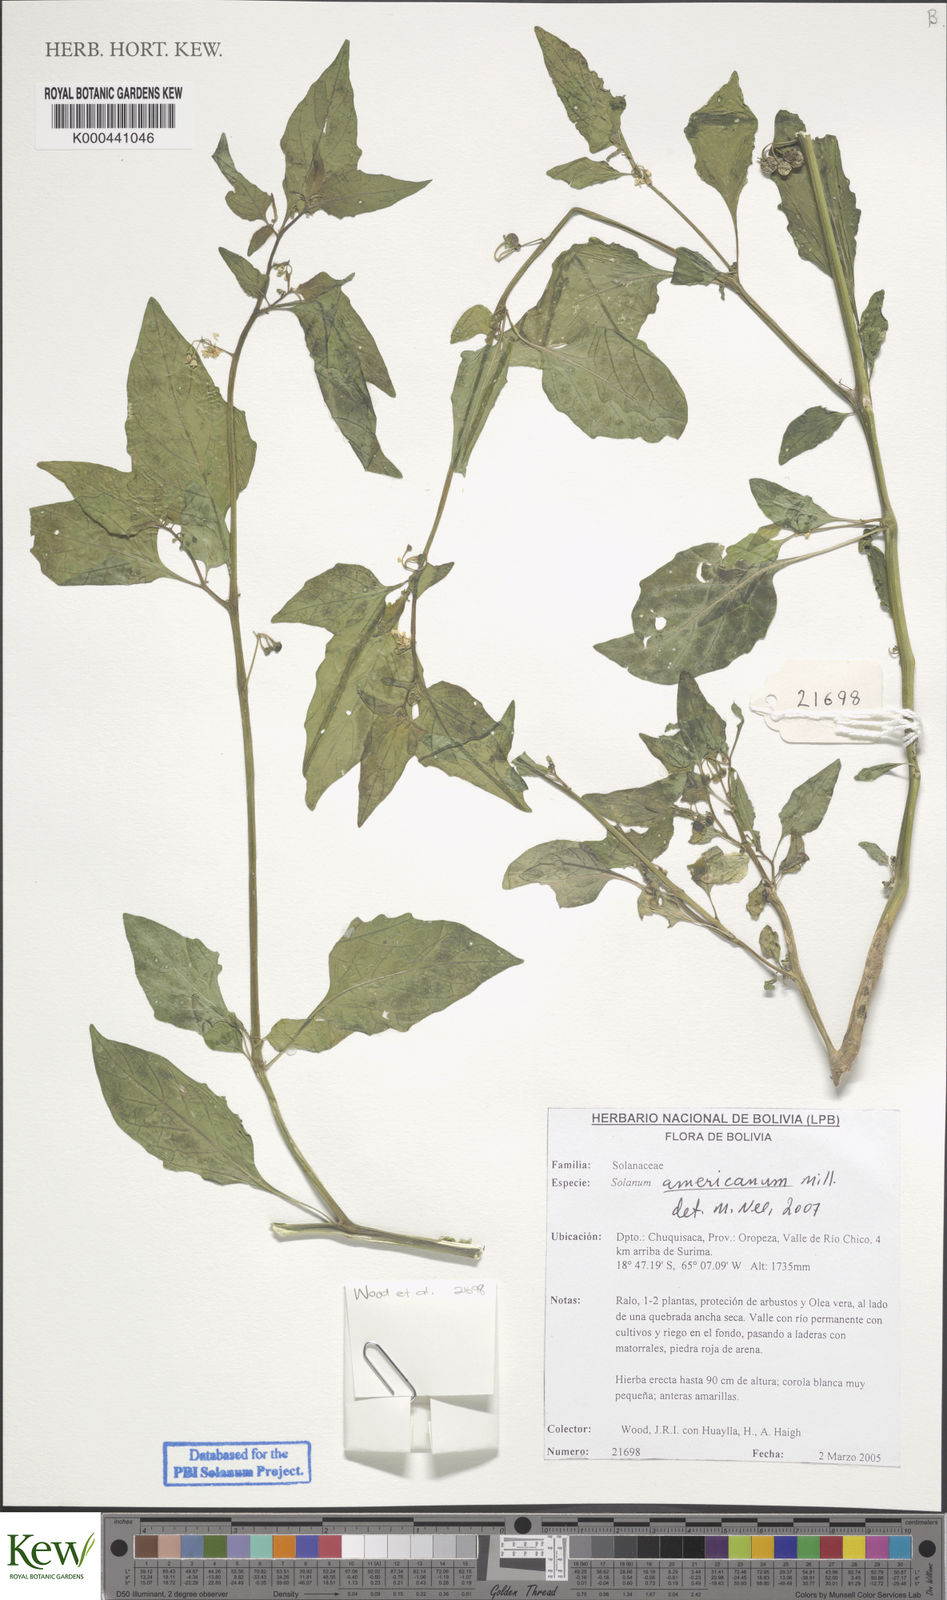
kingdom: Plantae
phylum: Tracheophyta
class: Magnoliopsida
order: Solanales
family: Solanaceae
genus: Solanum
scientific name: Solanum americanum
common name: American black nightshade
